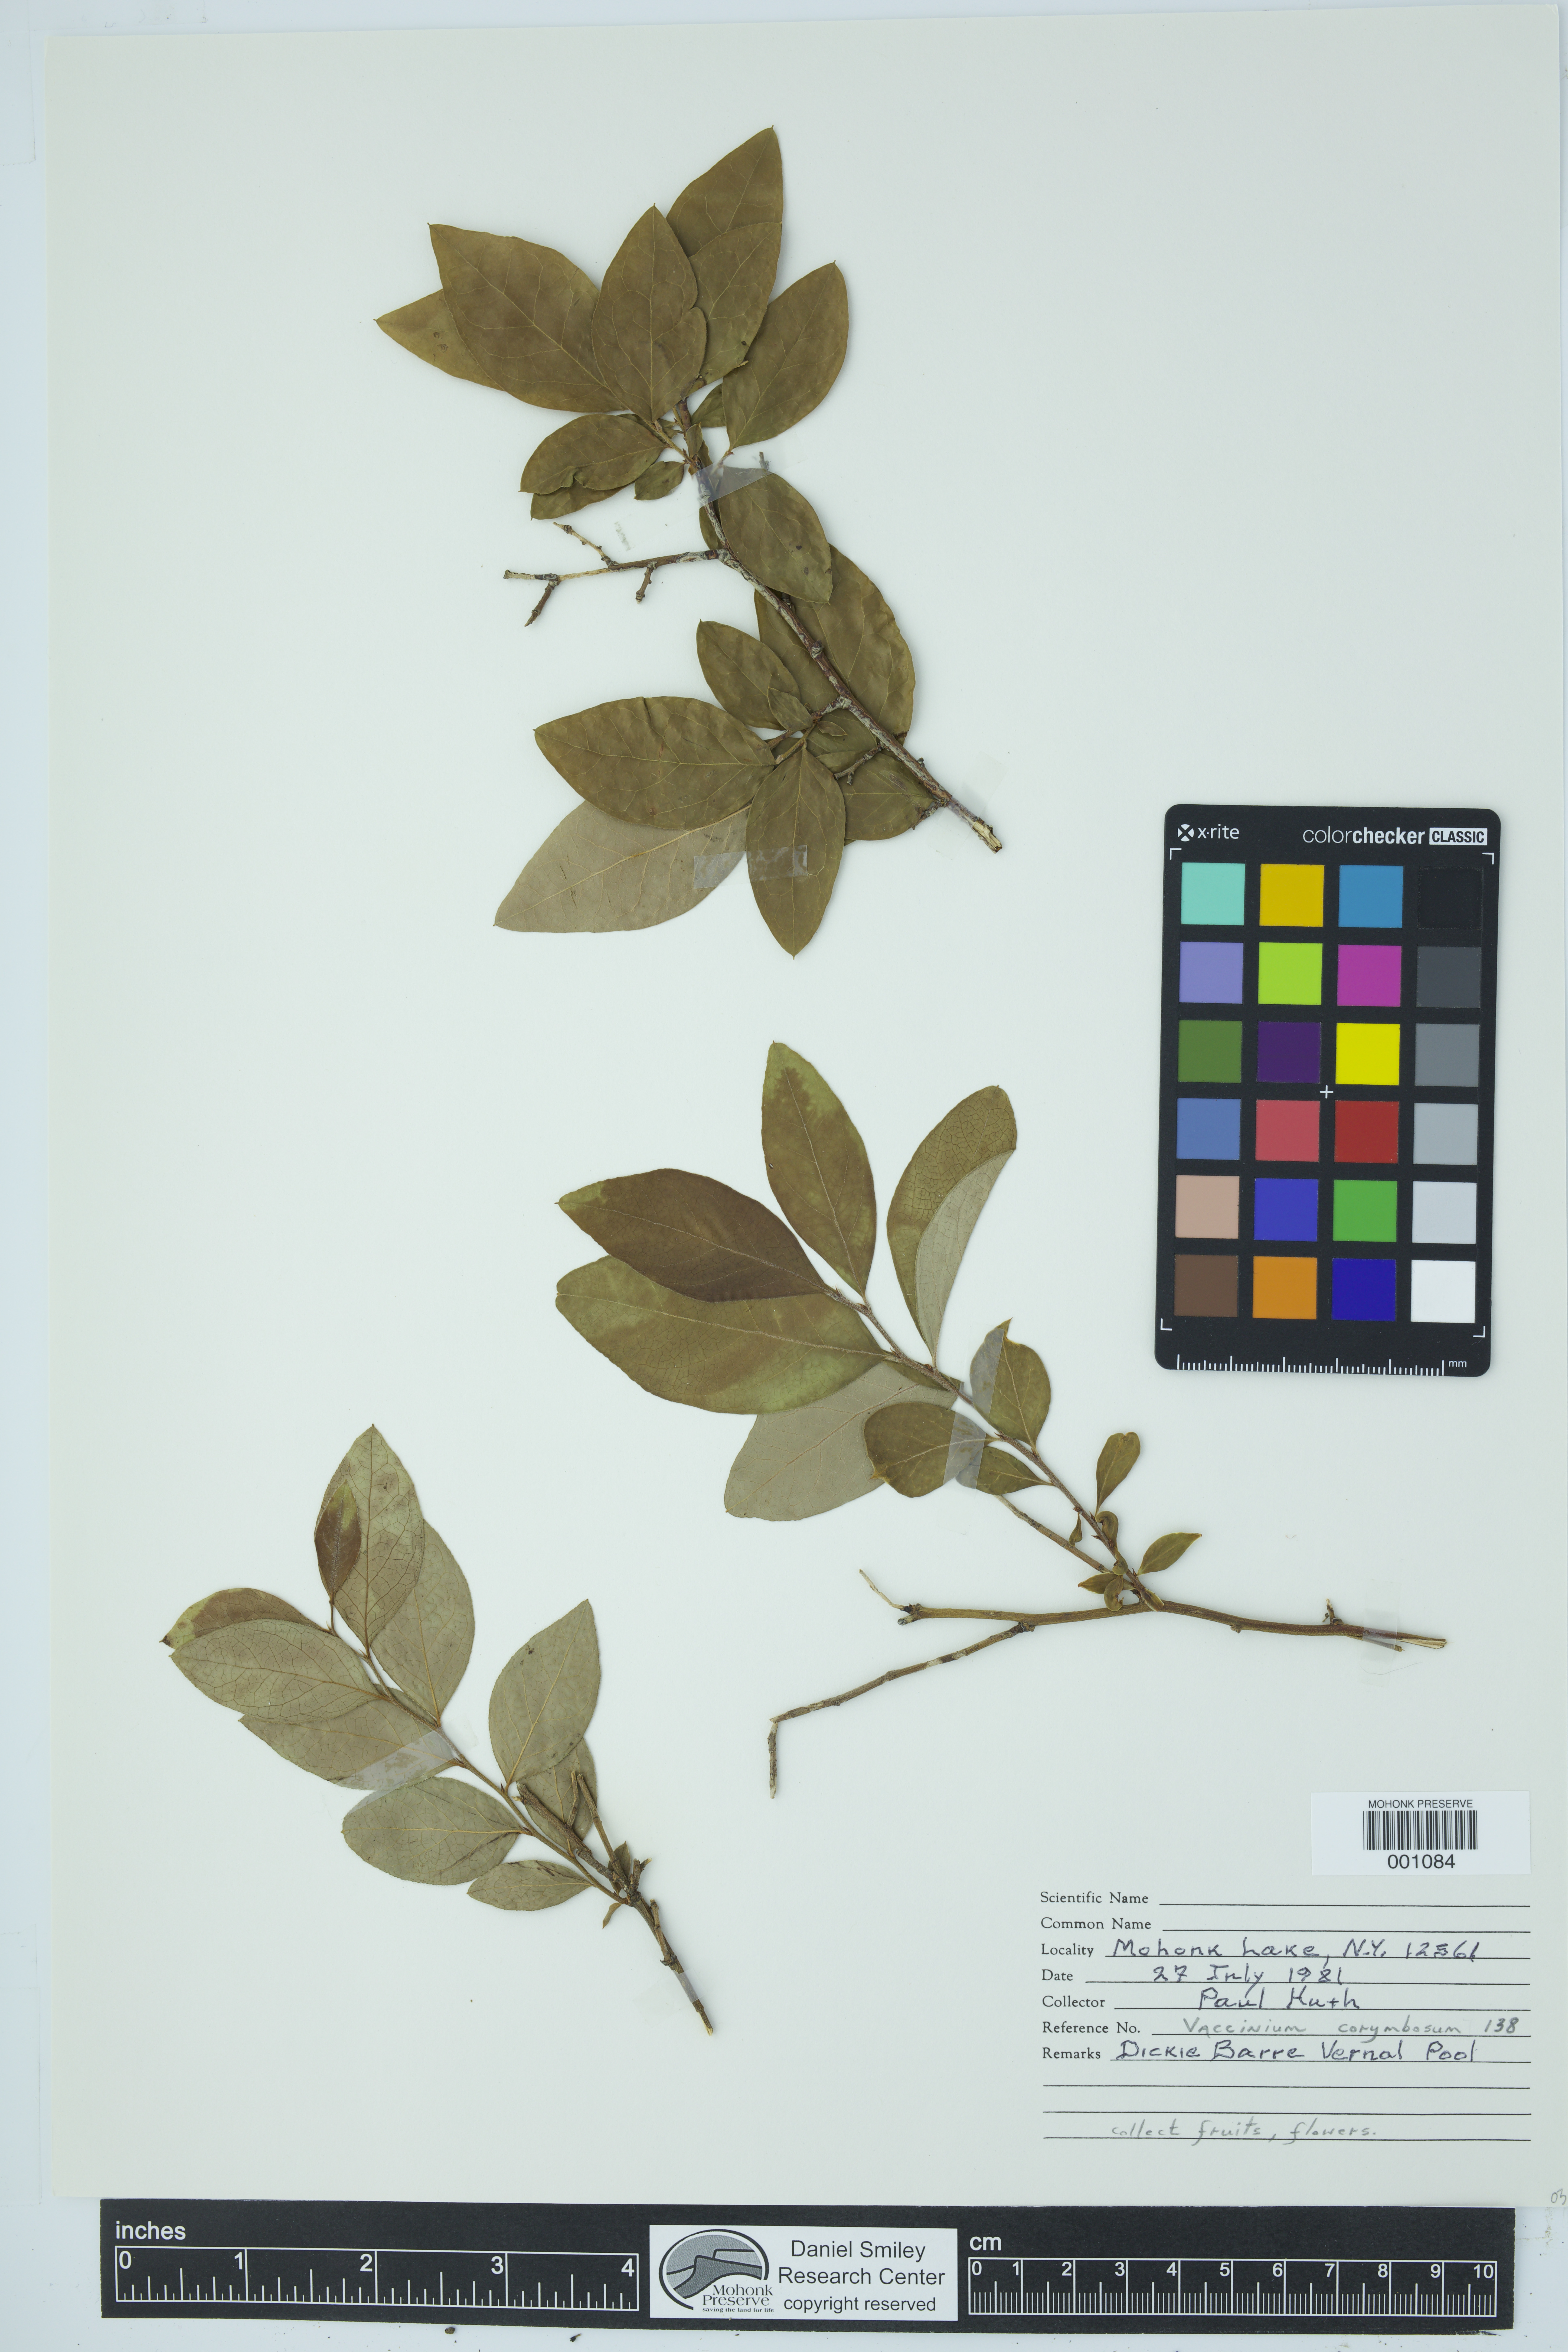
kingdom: Plantae
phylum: Tracheophyta
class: Magnoliopsida
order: Ericales
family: Ericaceae
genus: Vaccinium
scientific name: Vaccinium corymbosum
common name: Blueberry
